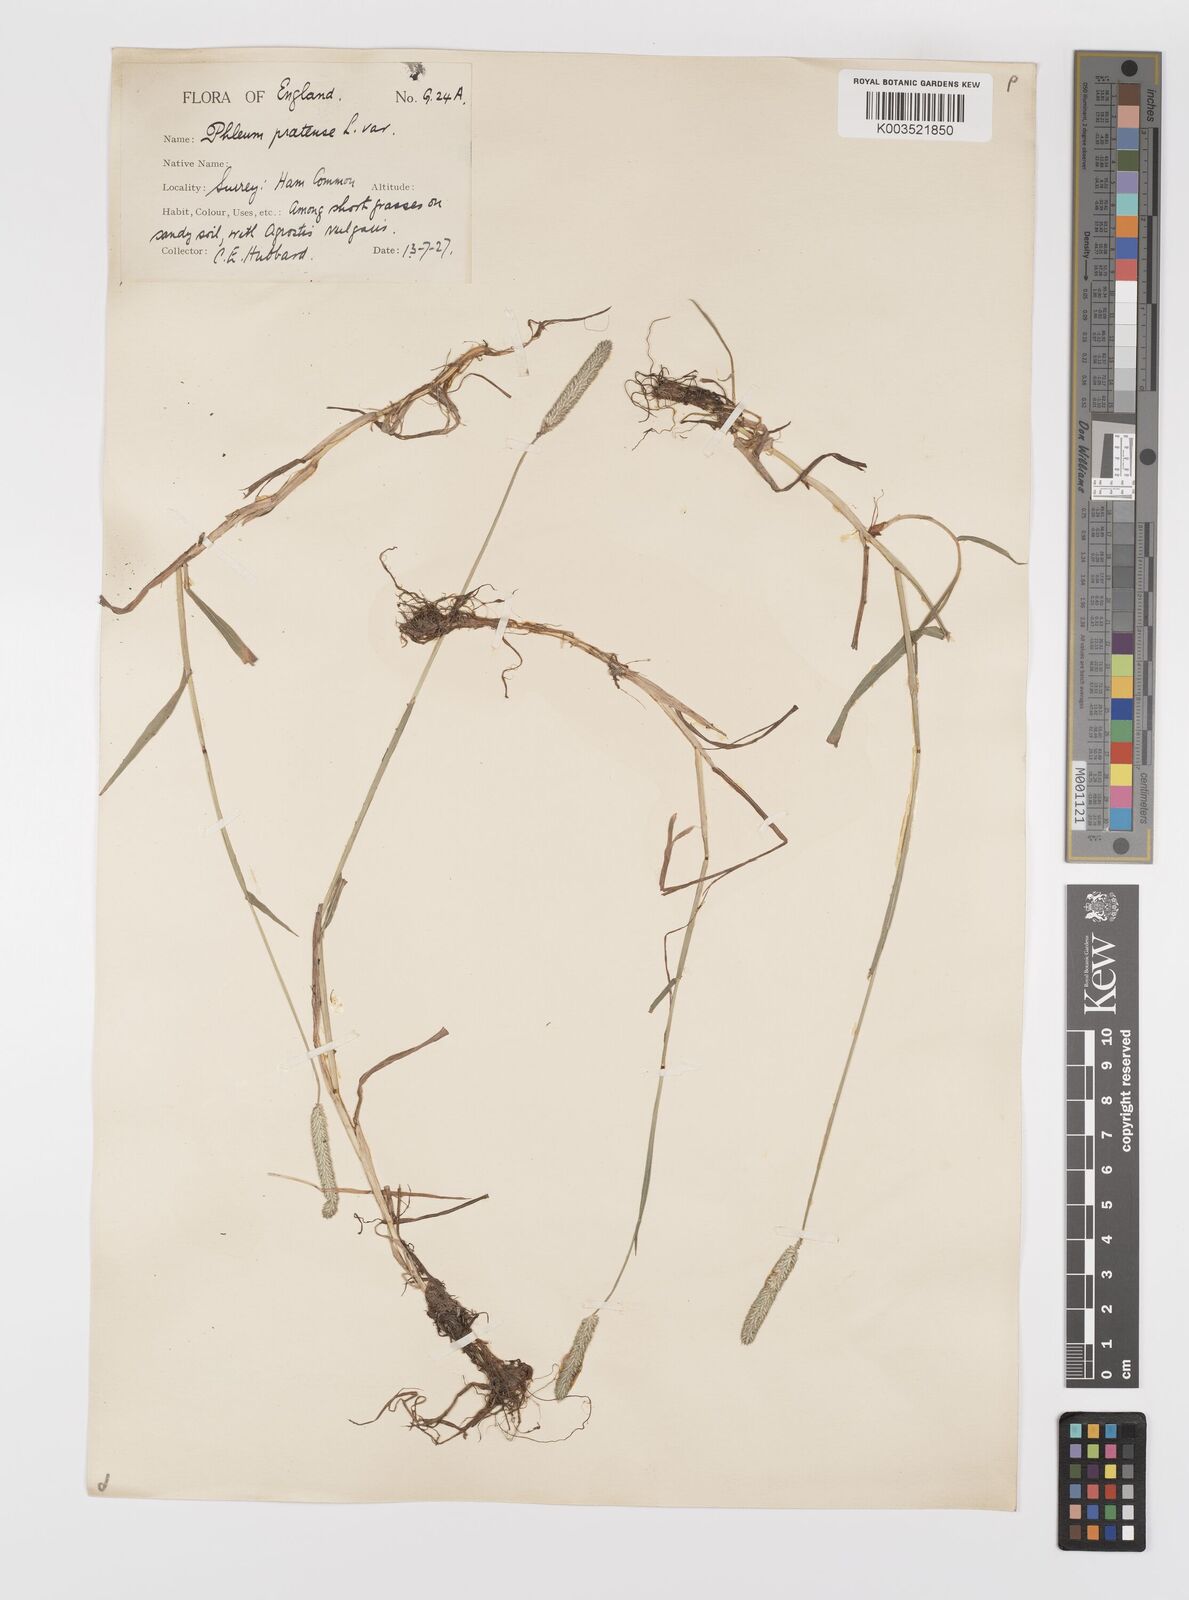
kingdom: Plantae
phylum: Tracheophyta
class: Liliopsida
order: Poales
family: Poaceae
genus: Phleum
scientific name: Phleum bertolonii
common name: Smaller cat's-tail
